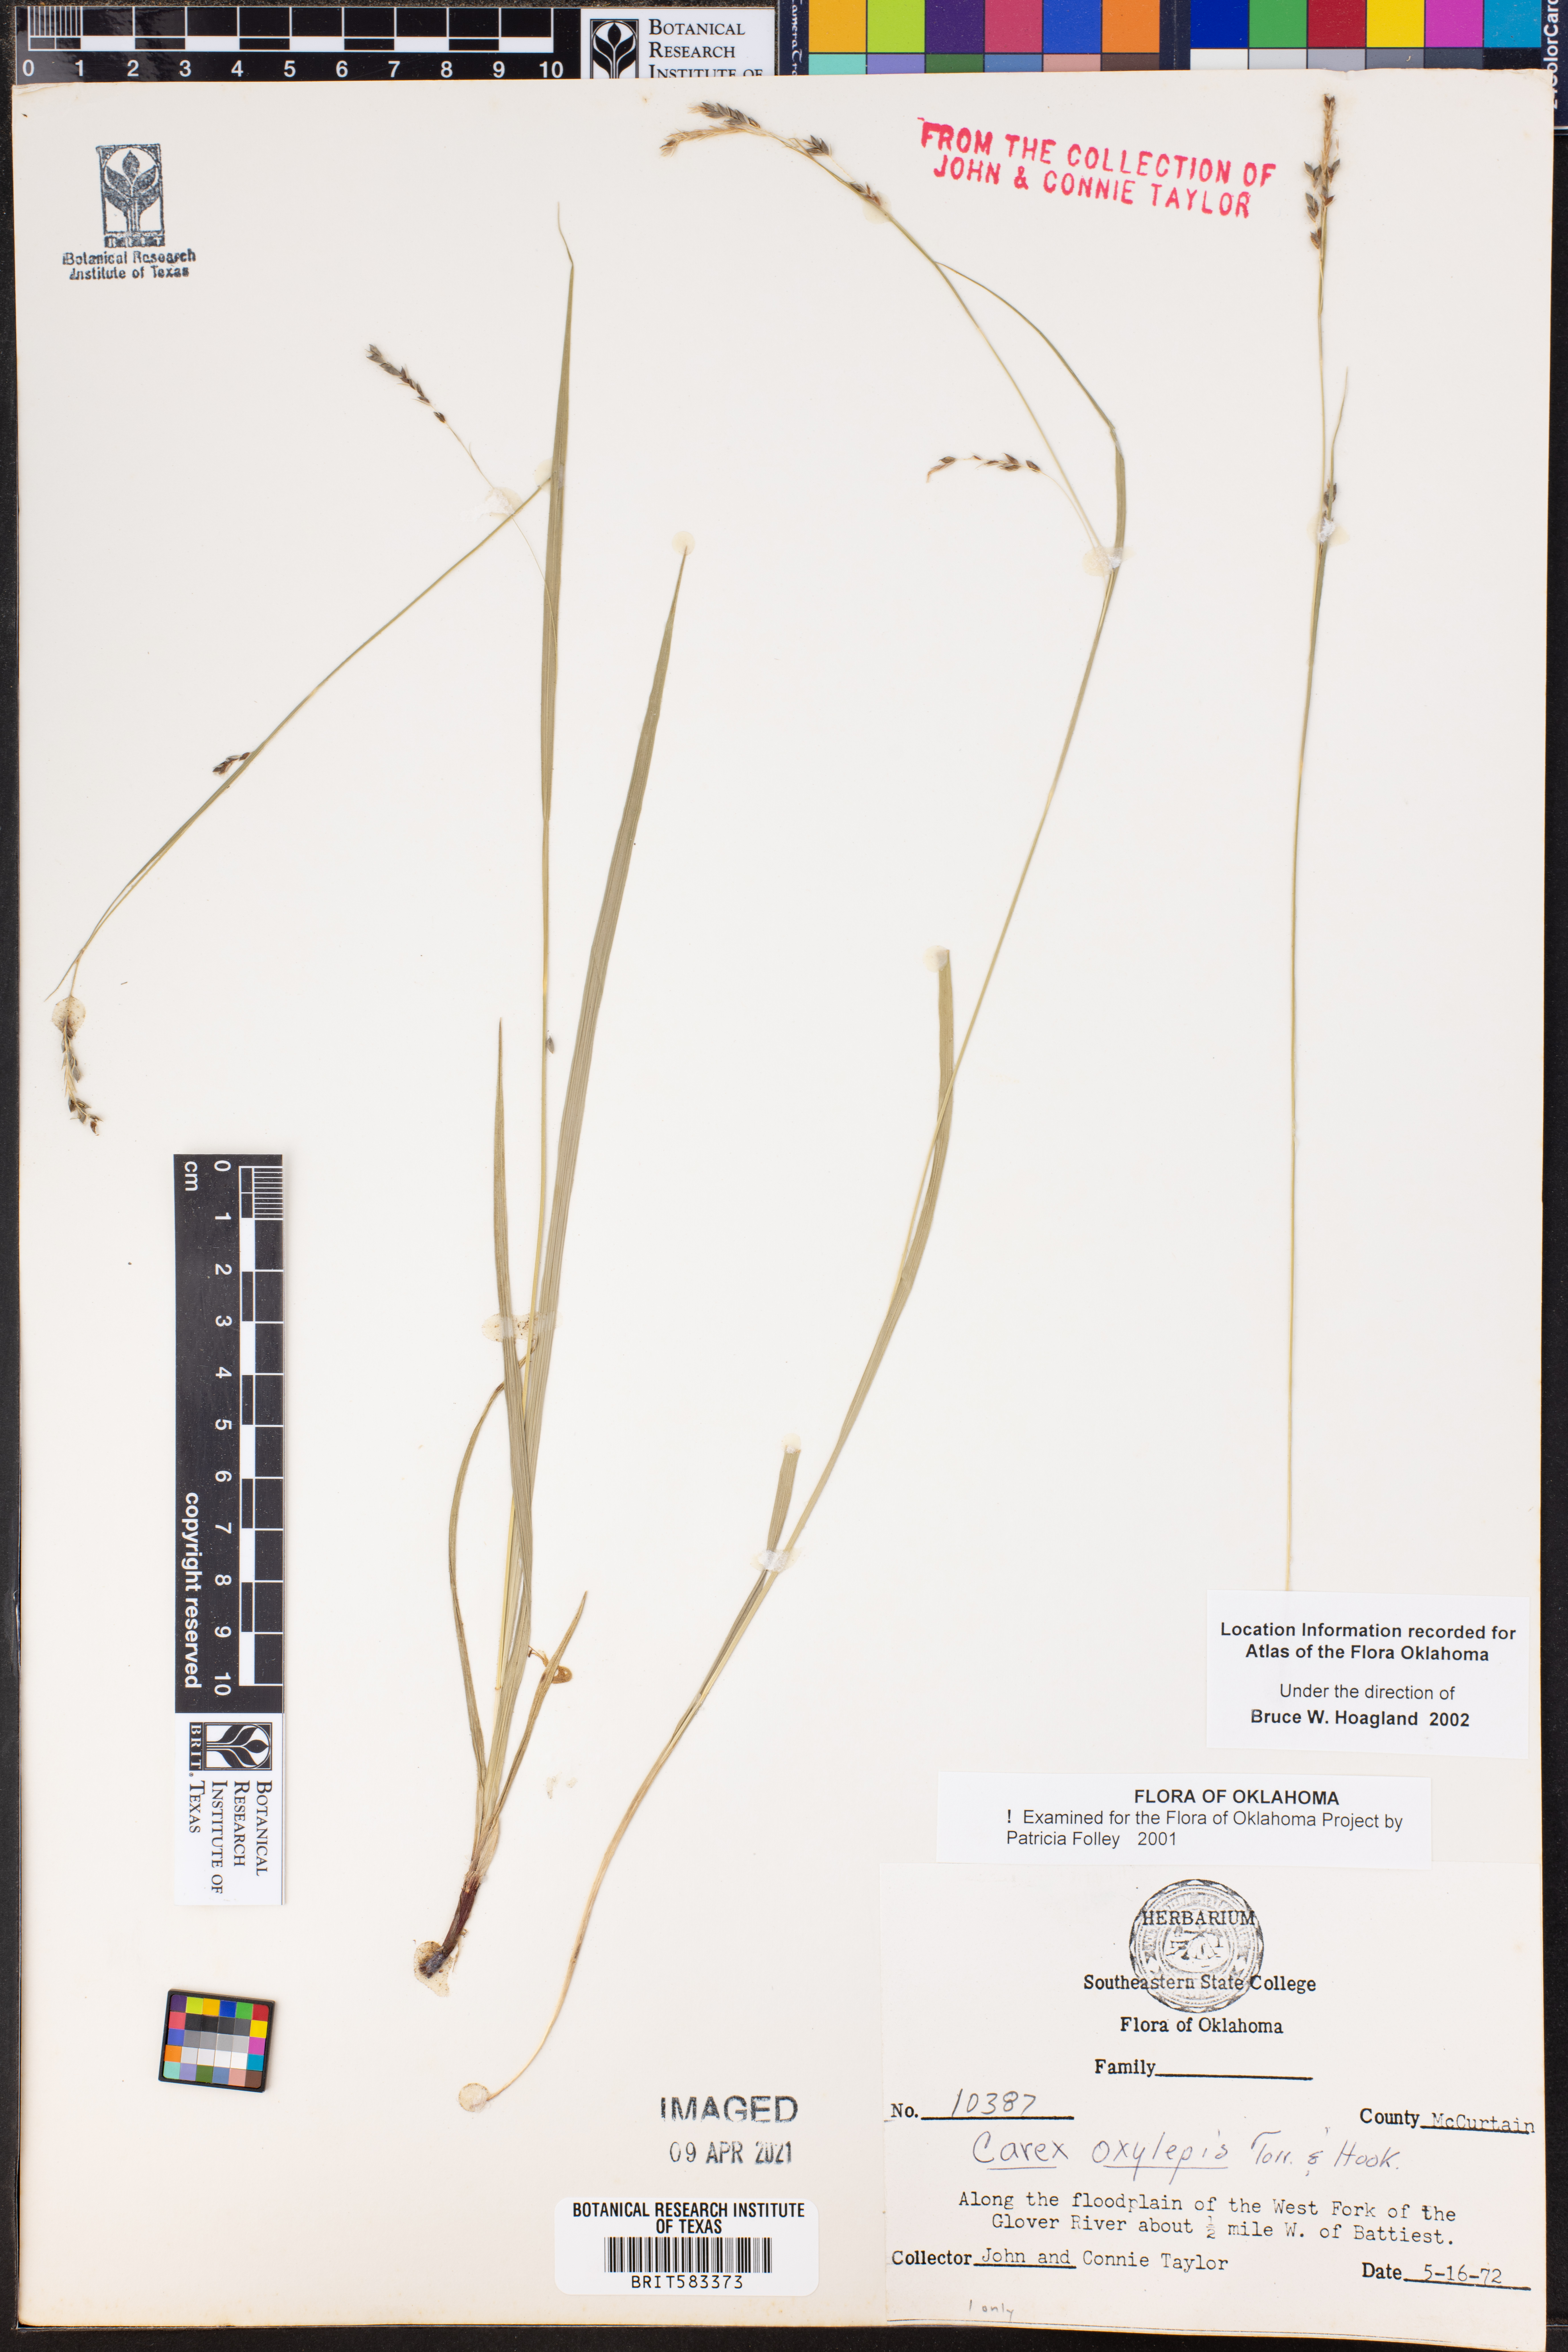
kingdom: Plantae
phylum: Tracheophyta
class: Liliopsida
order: Poales
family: Cyperaceae
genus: Carex
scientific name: Carex oxylepis
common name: Sharpscale sedge
